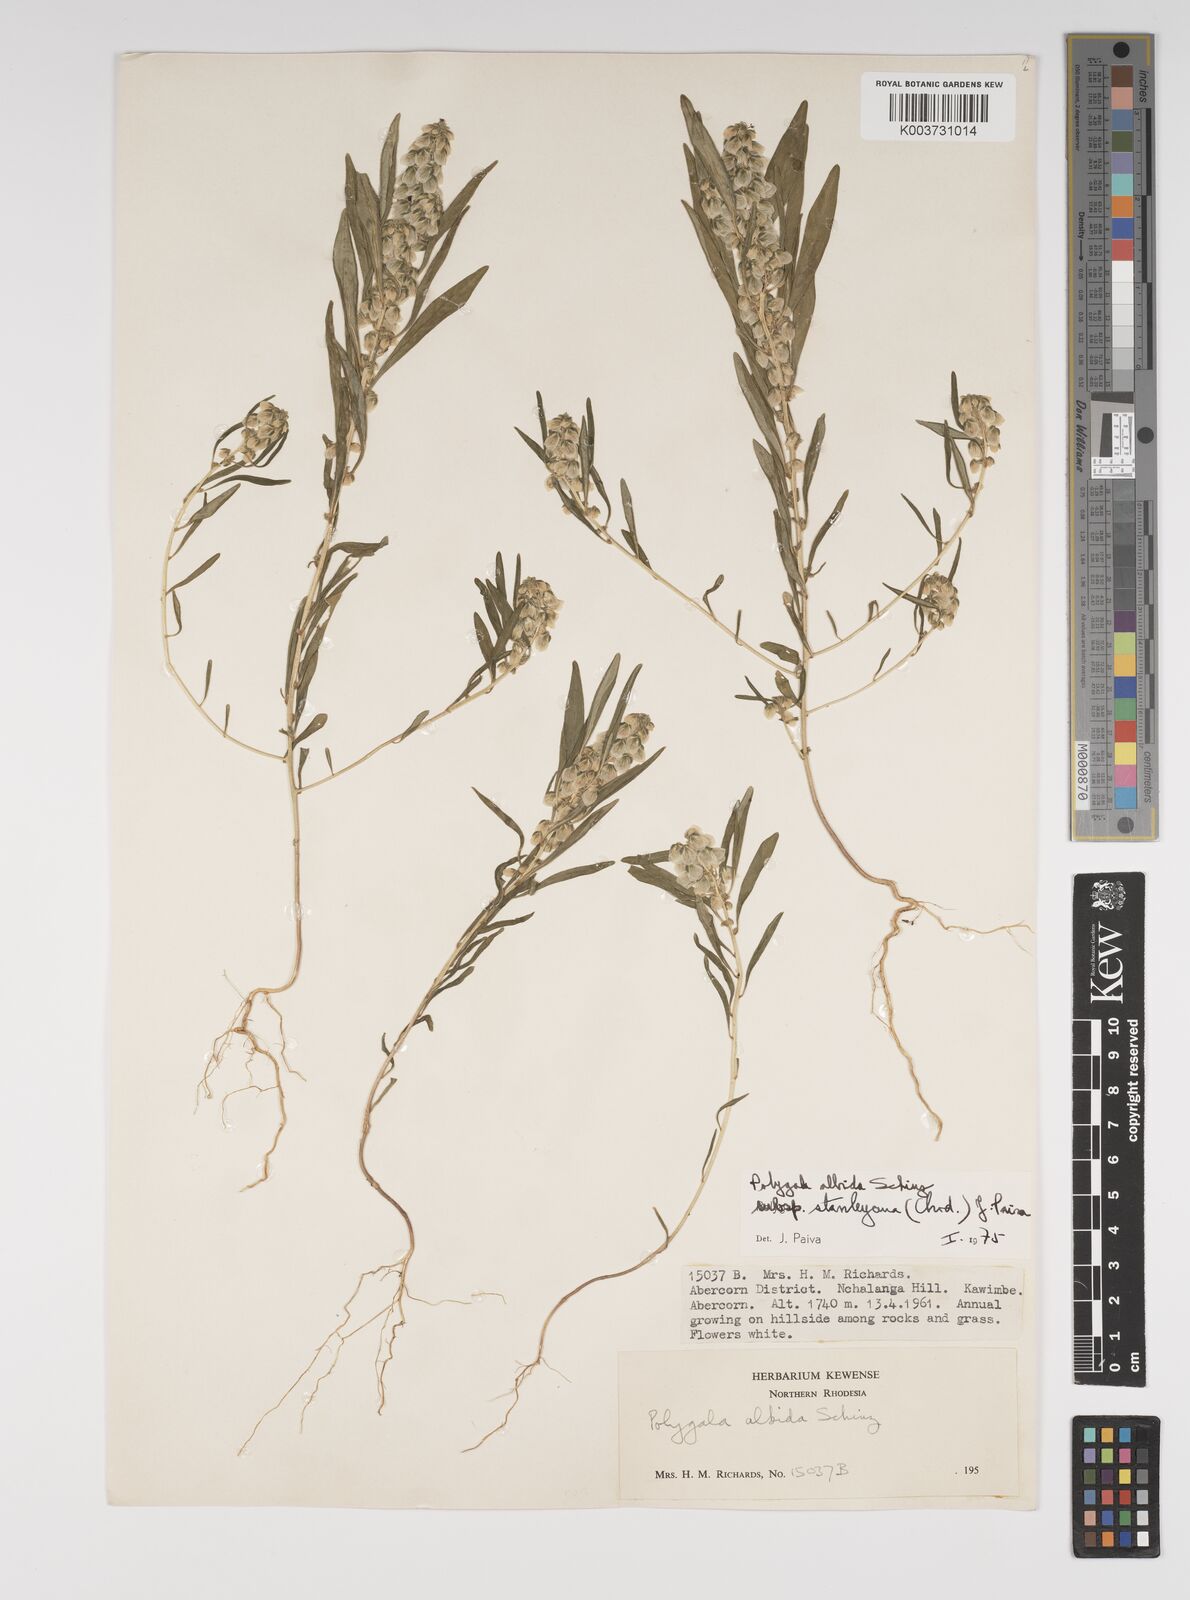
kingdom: Plantae
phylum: Tracheophyta
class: Magnoliopsida
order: Fabales
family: Polygalaceae
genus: Polygala
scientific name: Polygala albida
